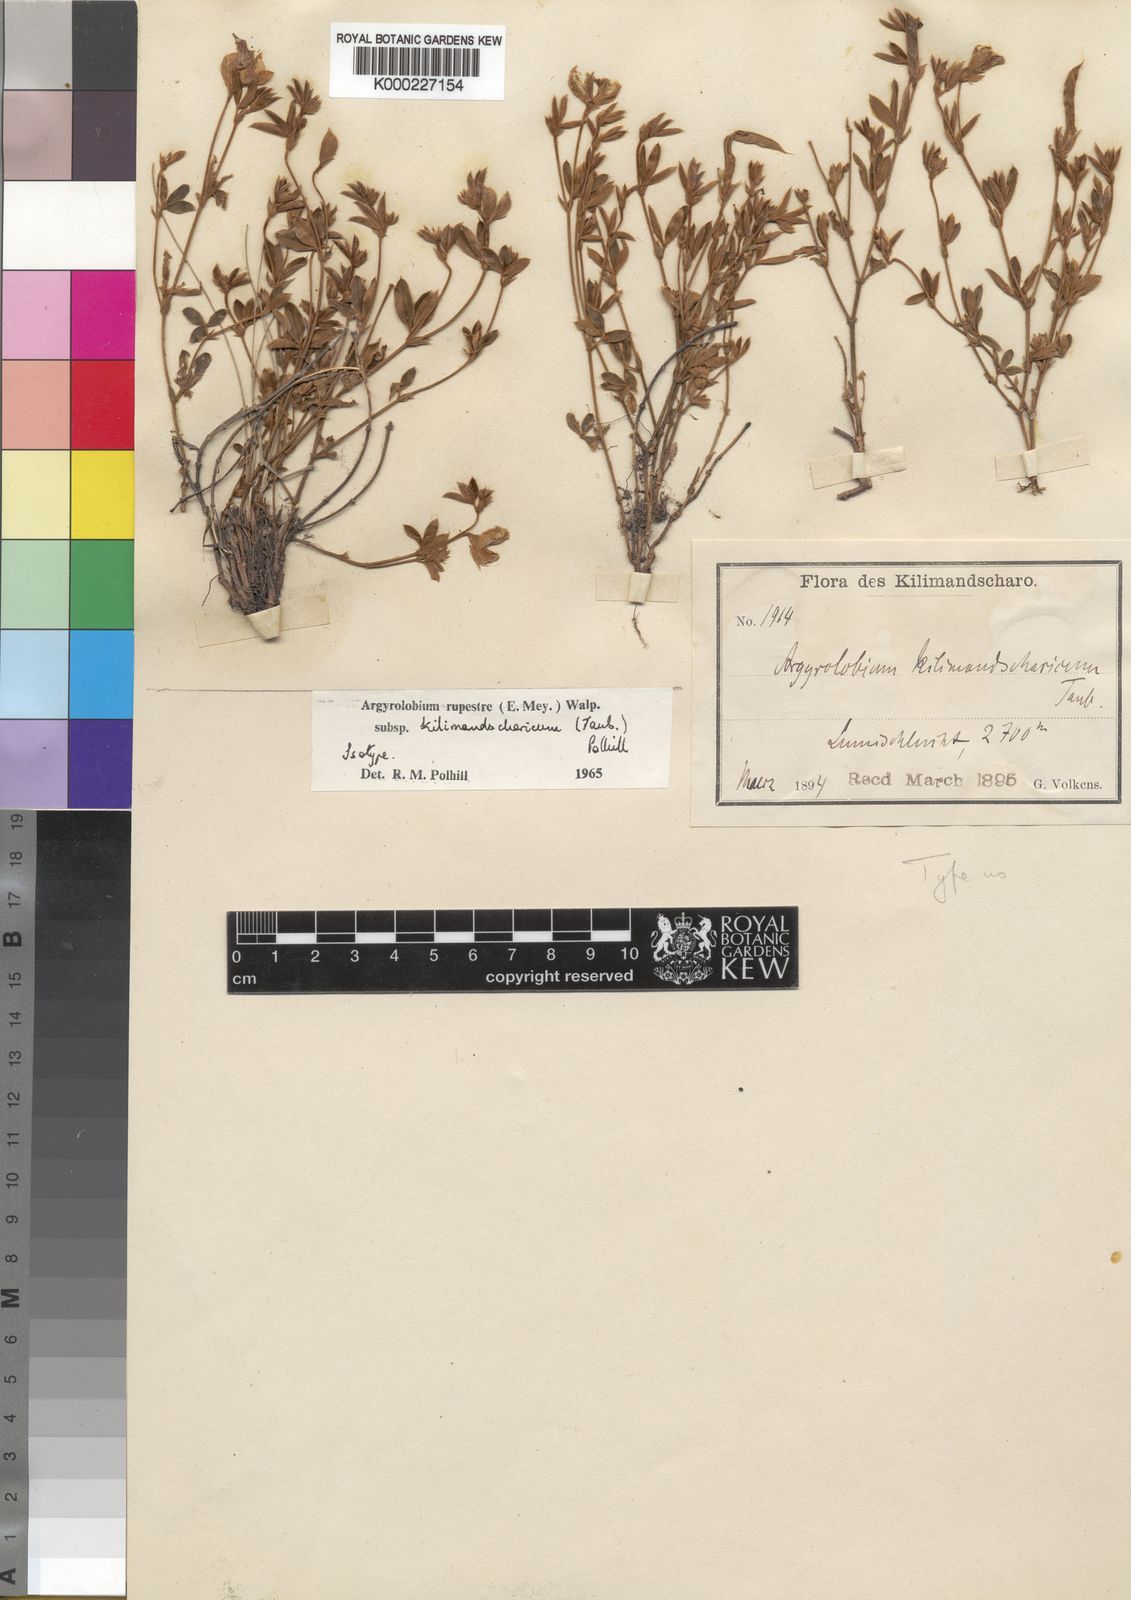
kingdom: Plantae
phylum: Tracheophyta
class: Magnoliopsida
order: Fabales
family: Fabaceae
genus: Argyrolobium
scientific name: Argyrolobium rupestre
